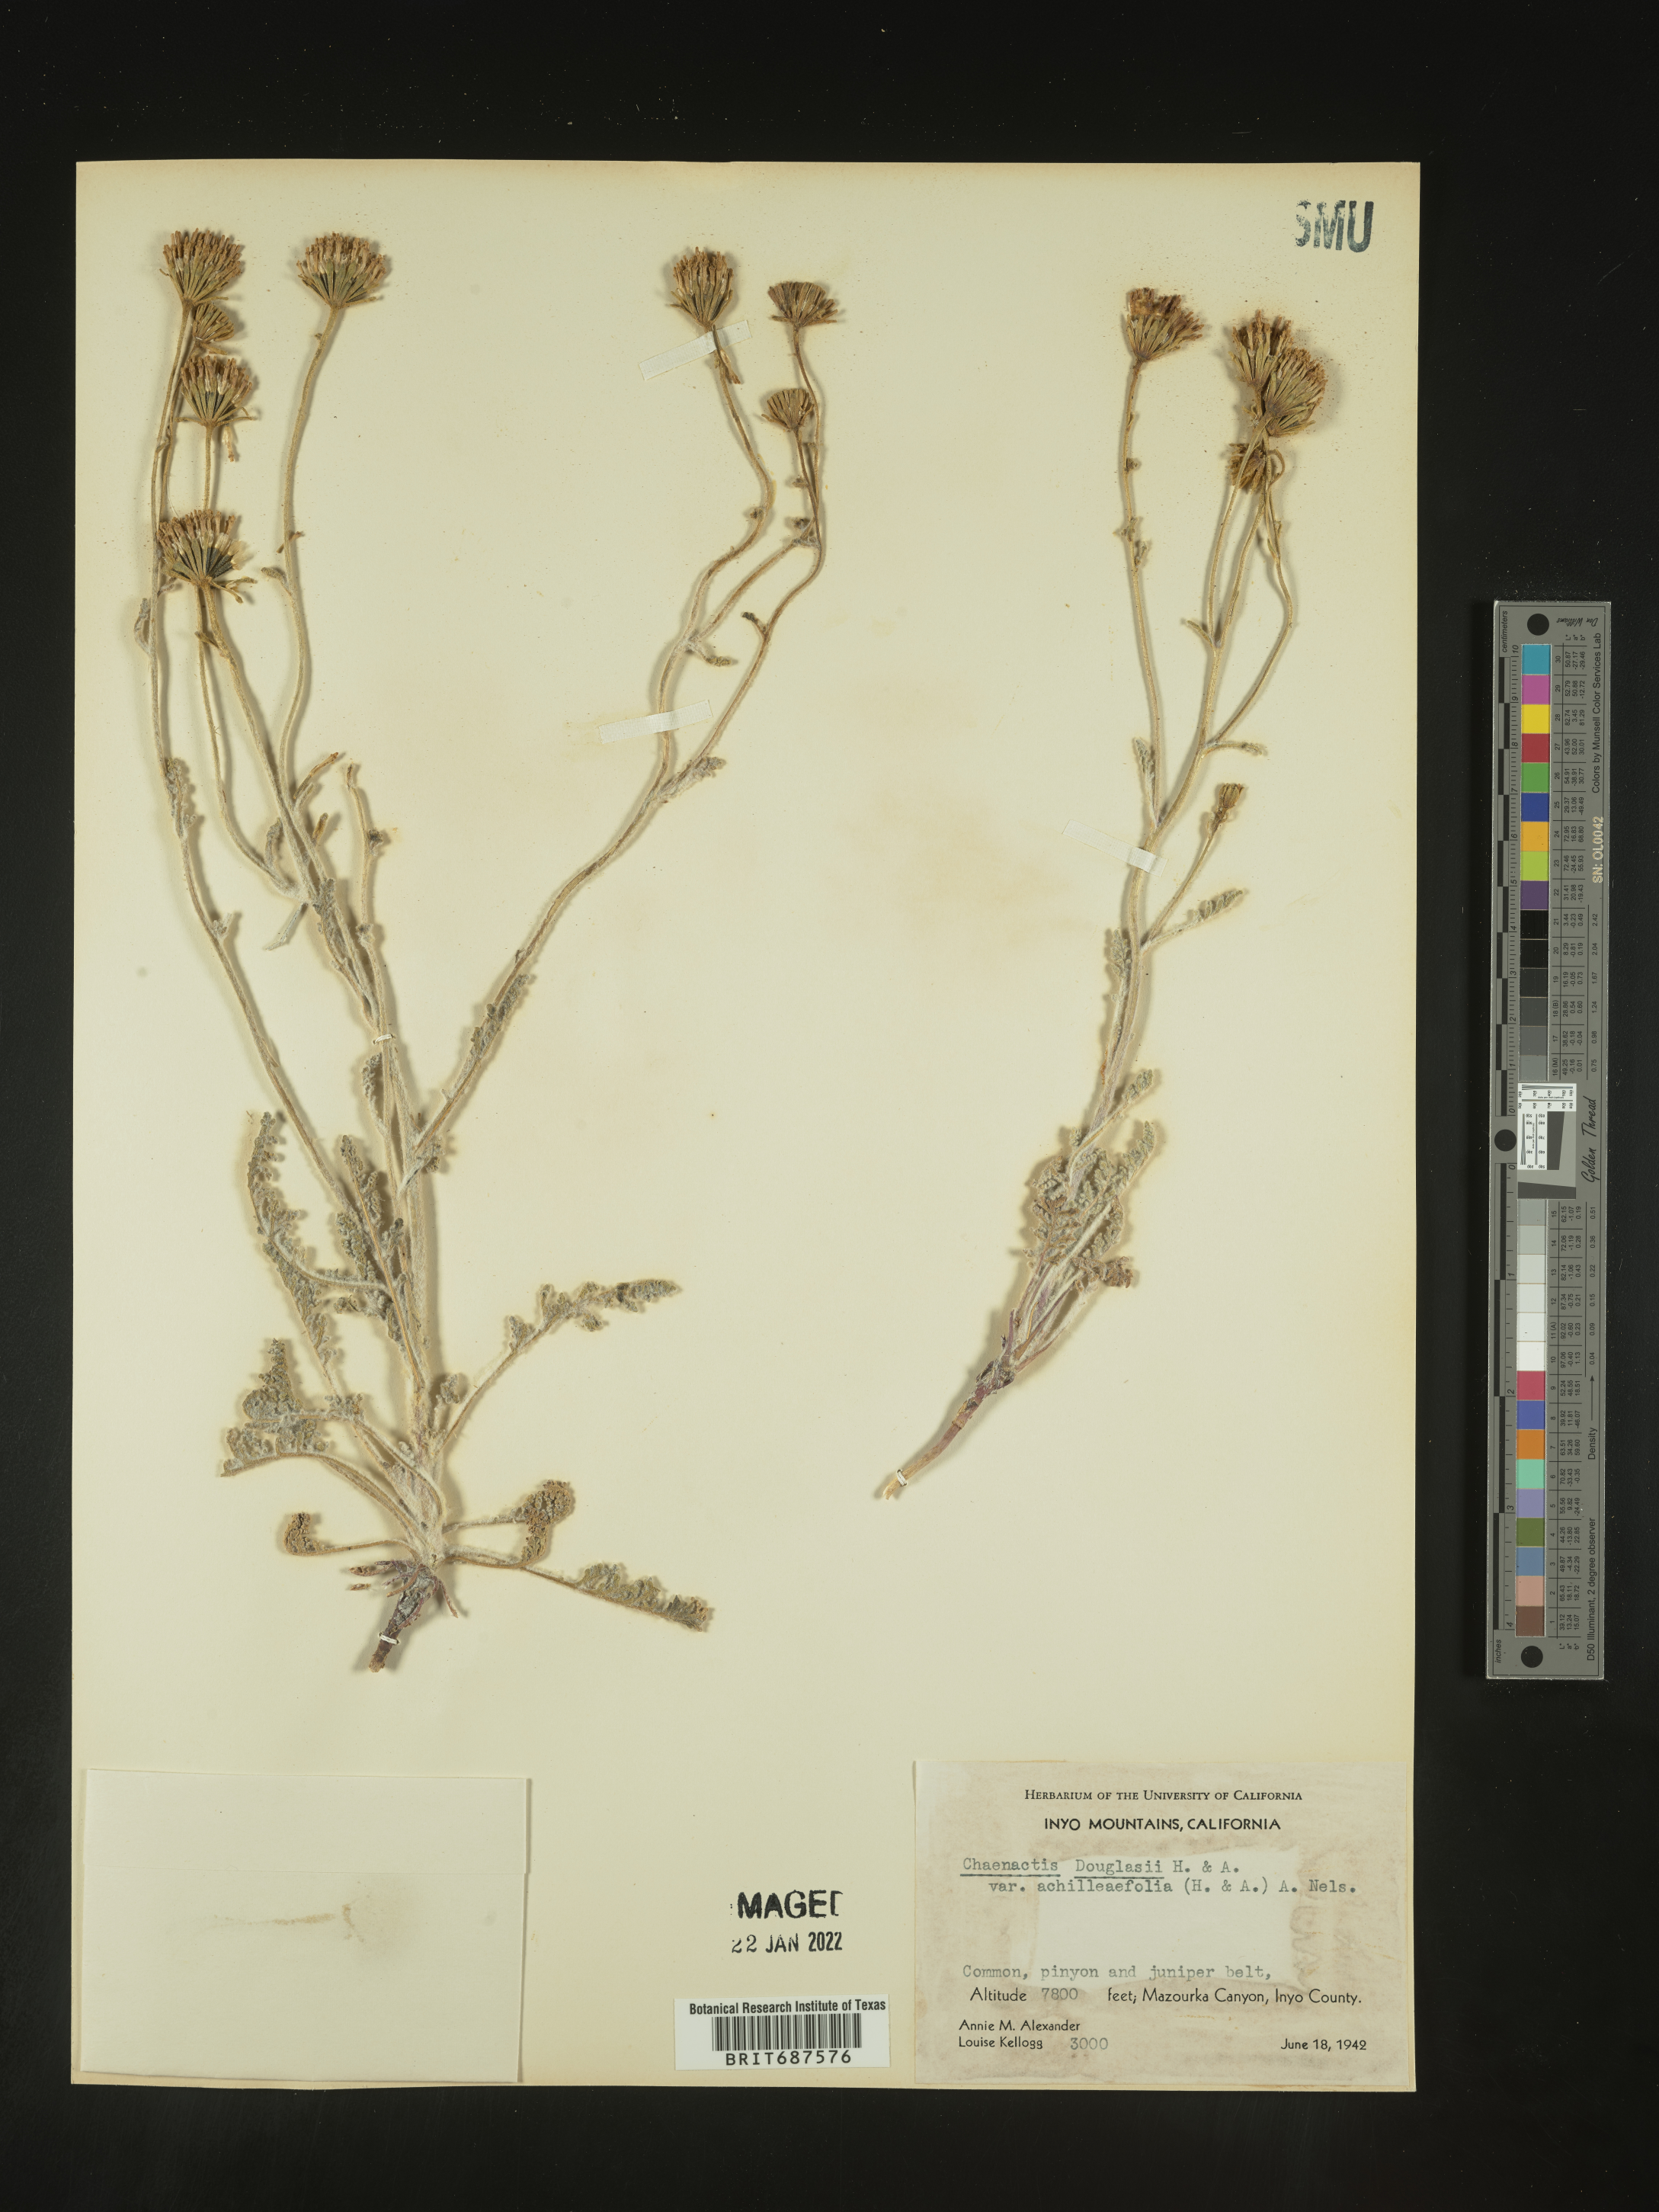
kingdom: Plantae
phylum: Tracheophyta
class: Magnoliopsida
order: Asterales
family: Asteraceae
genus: Chaenactis
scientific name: Chaenactis douglasii
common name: Hoary pincushion
